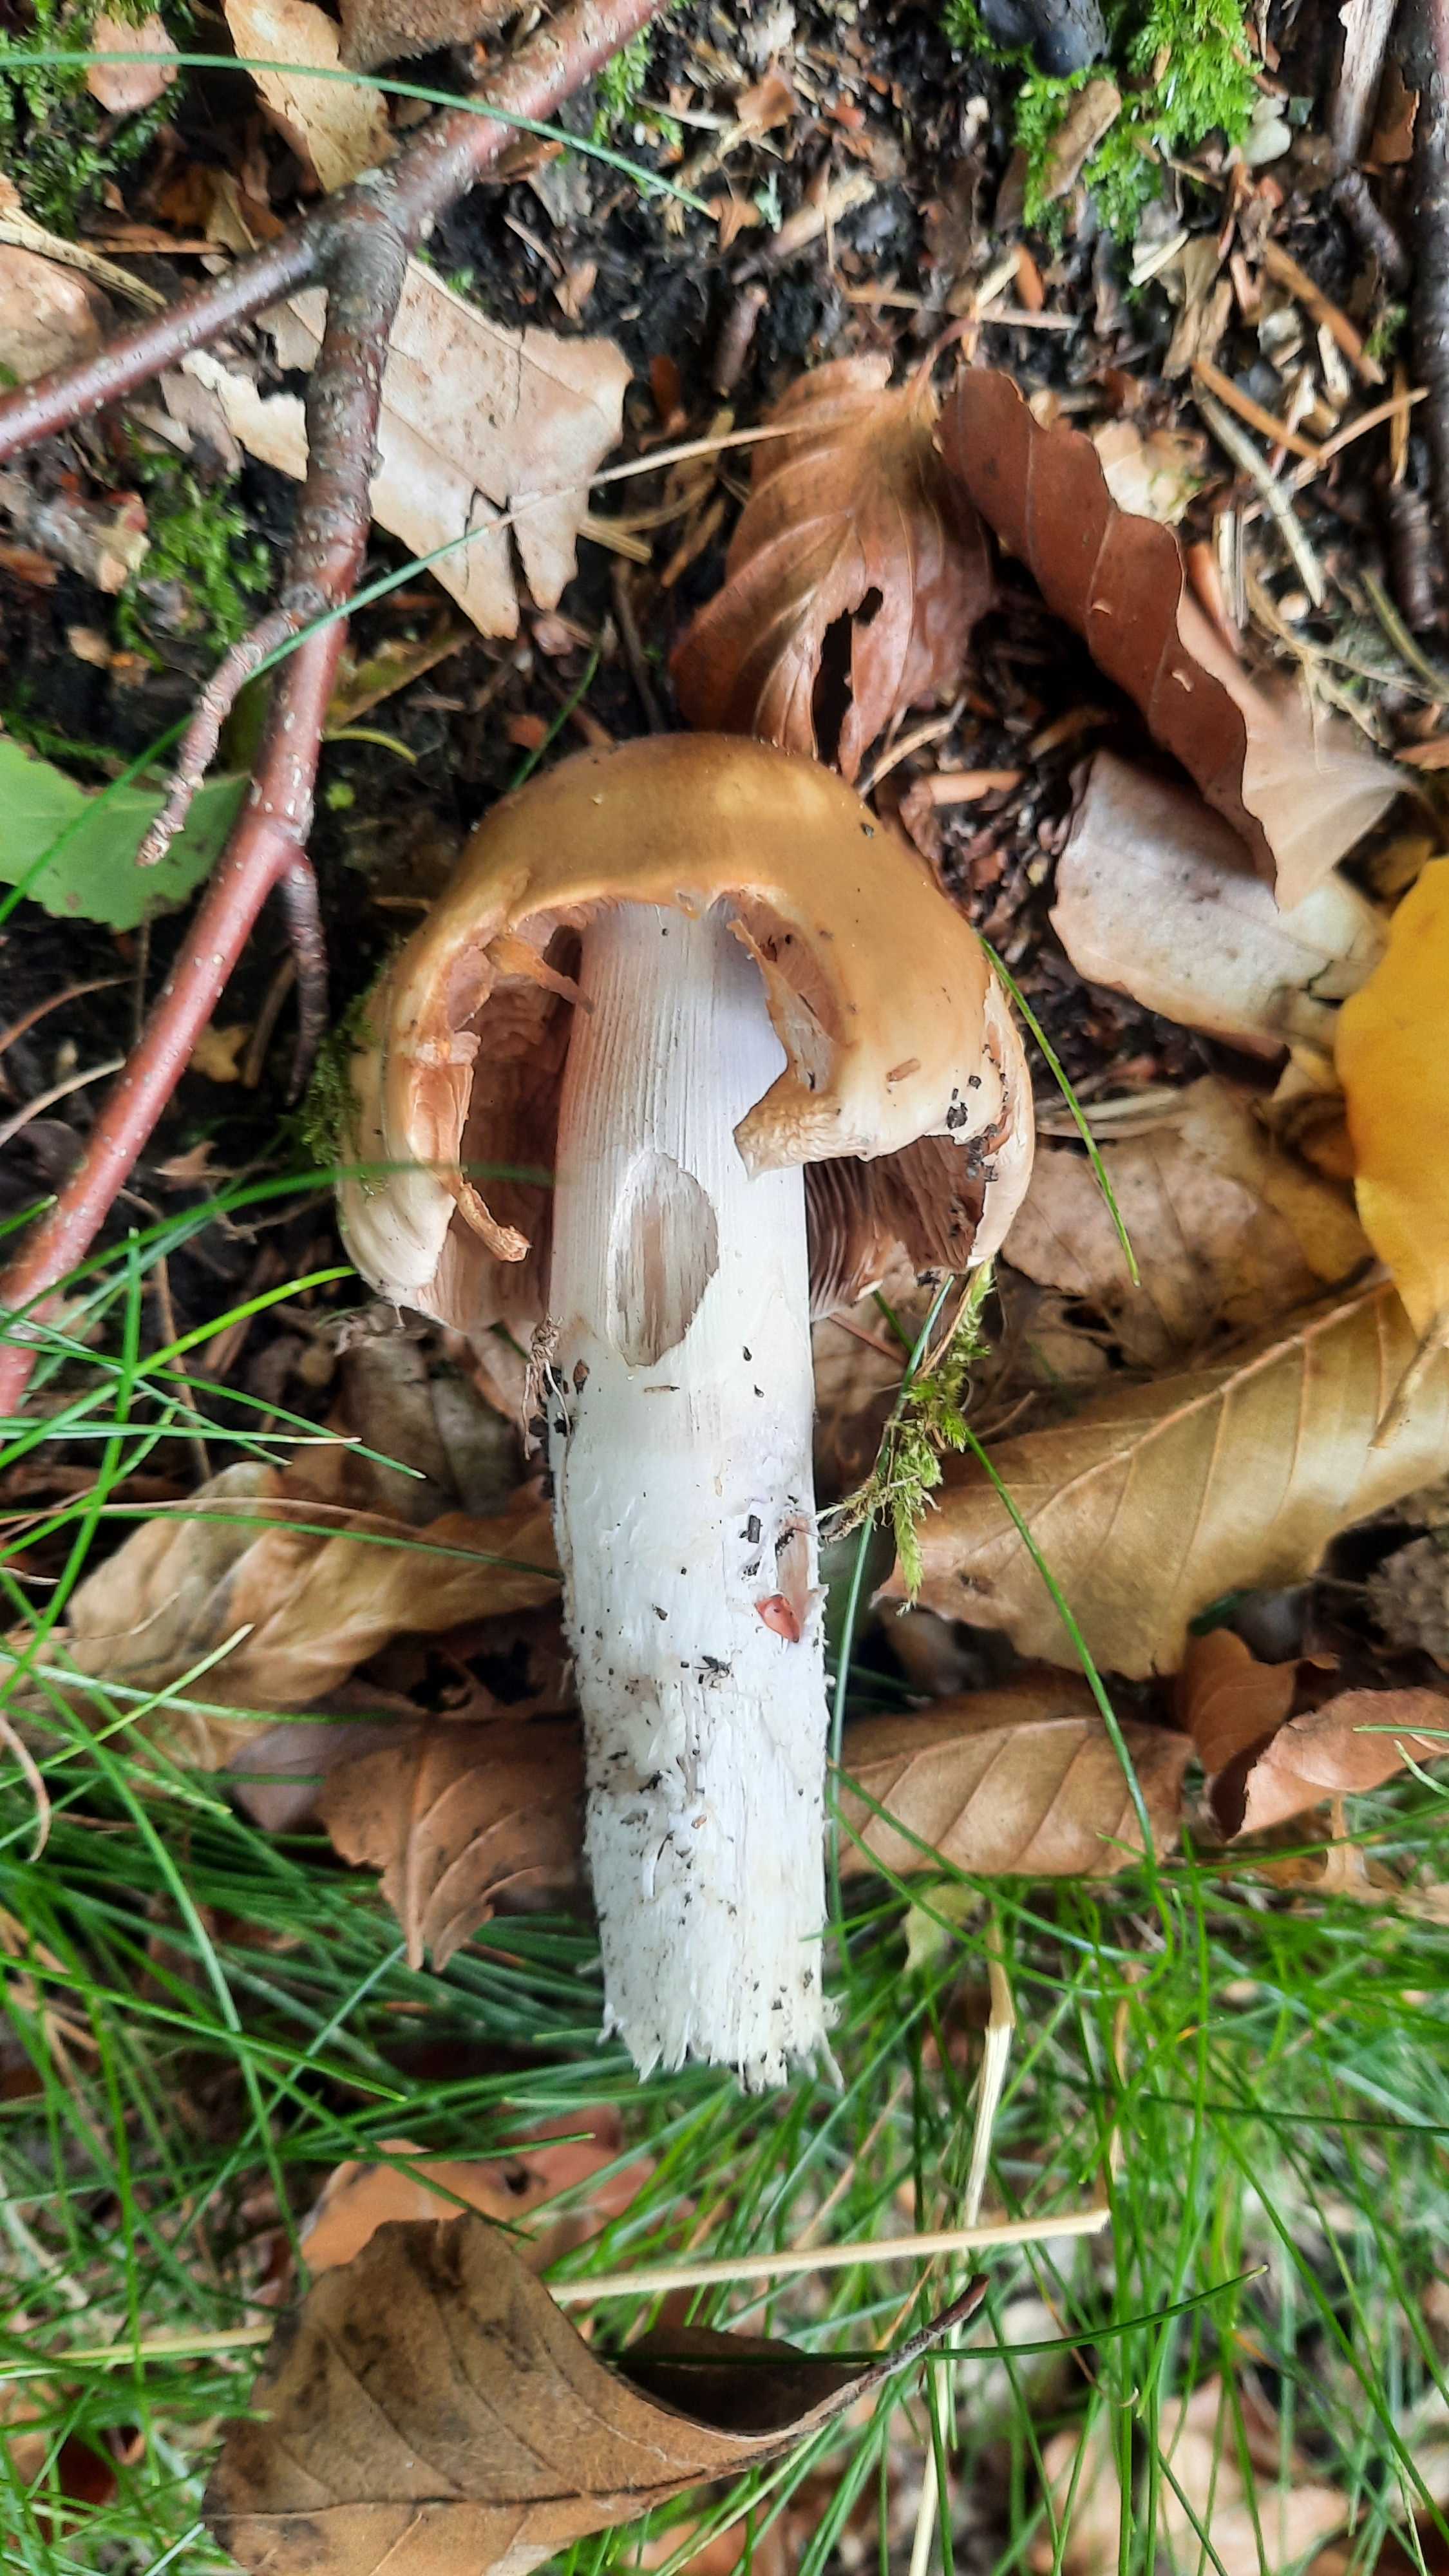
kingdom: Fungi
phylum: Basidiomycota
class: Agaricomycetes
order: Agaricales
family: Cortinariaceae
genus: Cortinarius
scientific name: Cortinarius elatior
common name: høj slørhat
